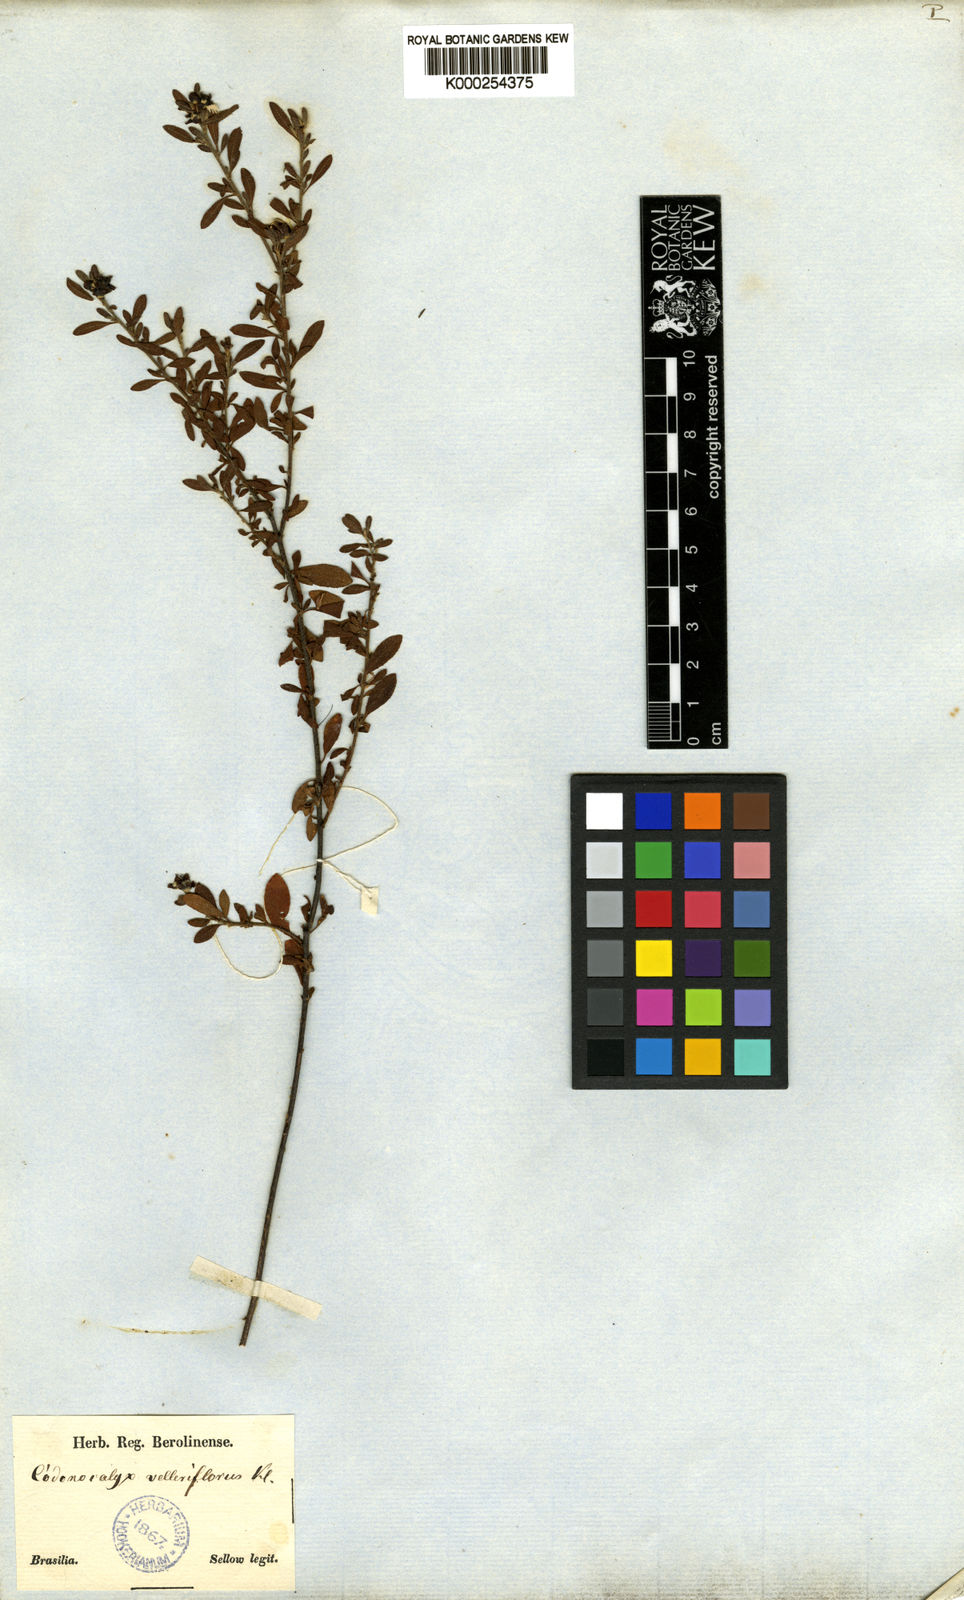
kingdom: Plantae
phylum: Tracheophyta
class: Magnoliopsida
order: Malpighiales
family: Euphorbiaceae
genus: Croton
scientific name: Croton nitrariifolius
